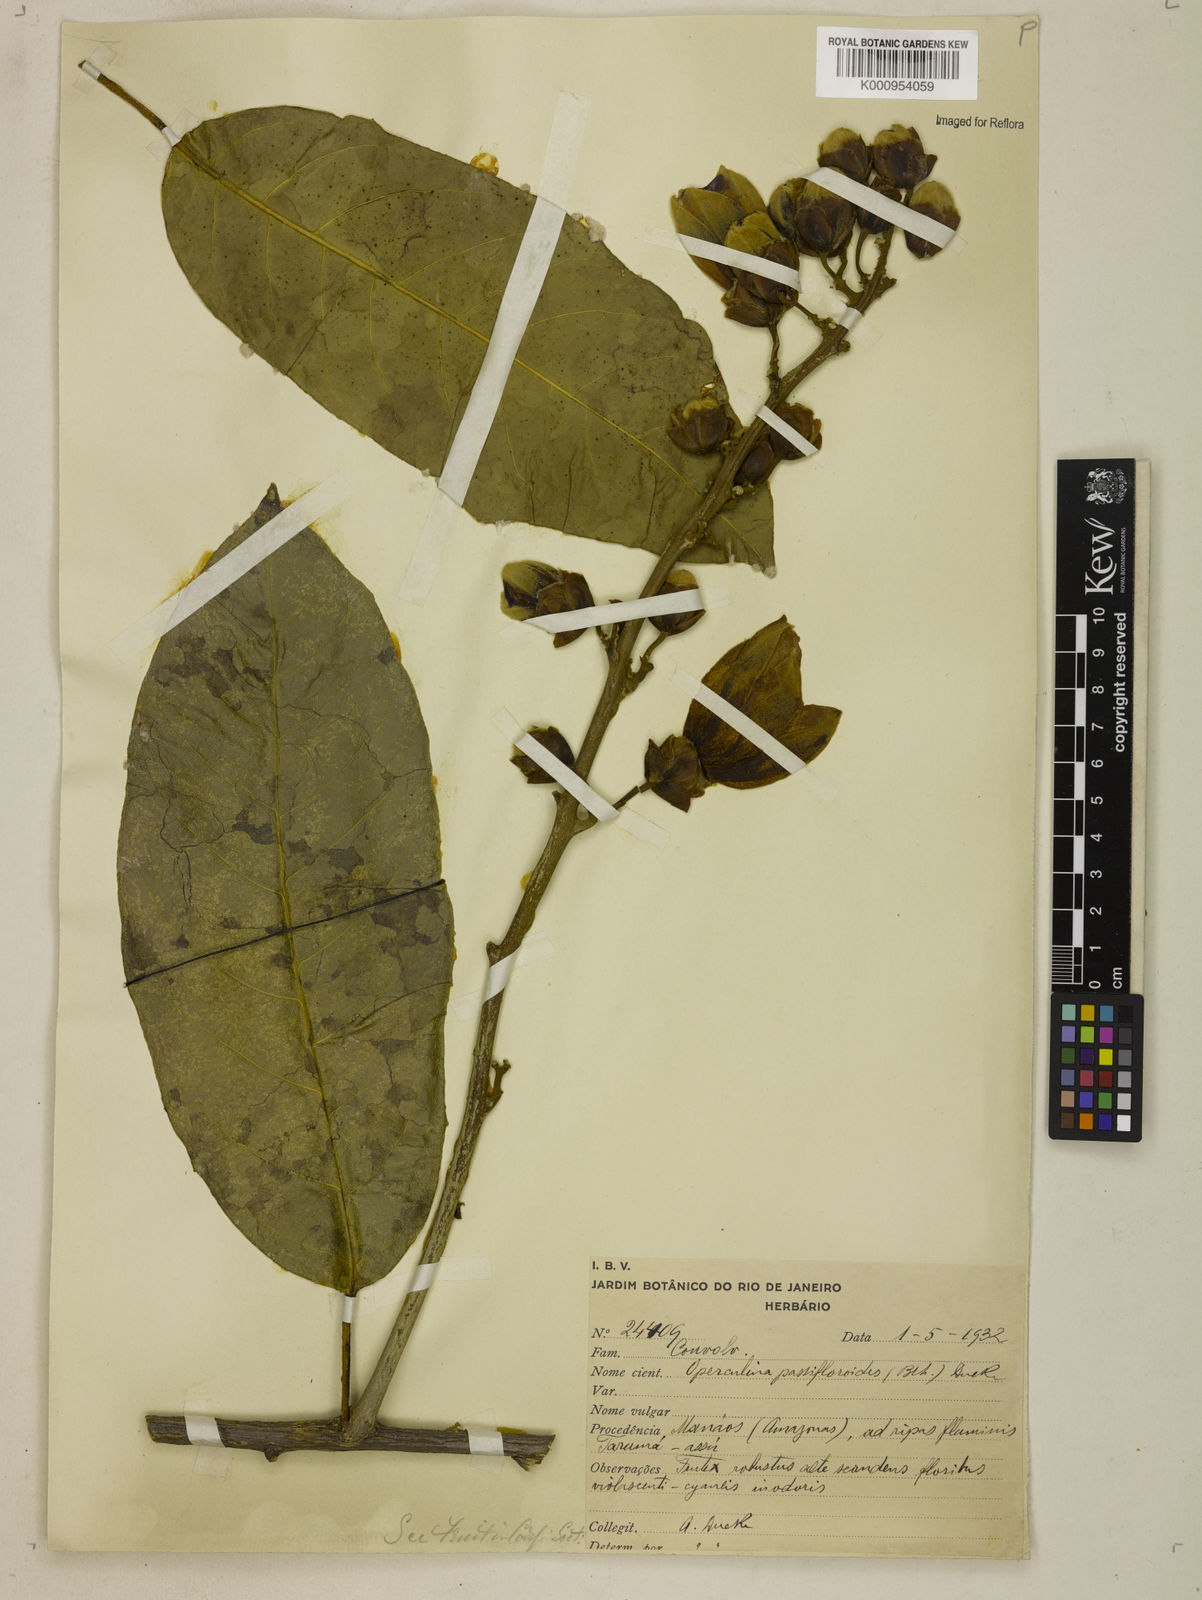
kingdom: Plantae
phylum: Tracheophyta
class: Magnoliopsida
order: Solanales
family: Convolvulaceae
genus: Maripa
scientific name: Maripa violacea
